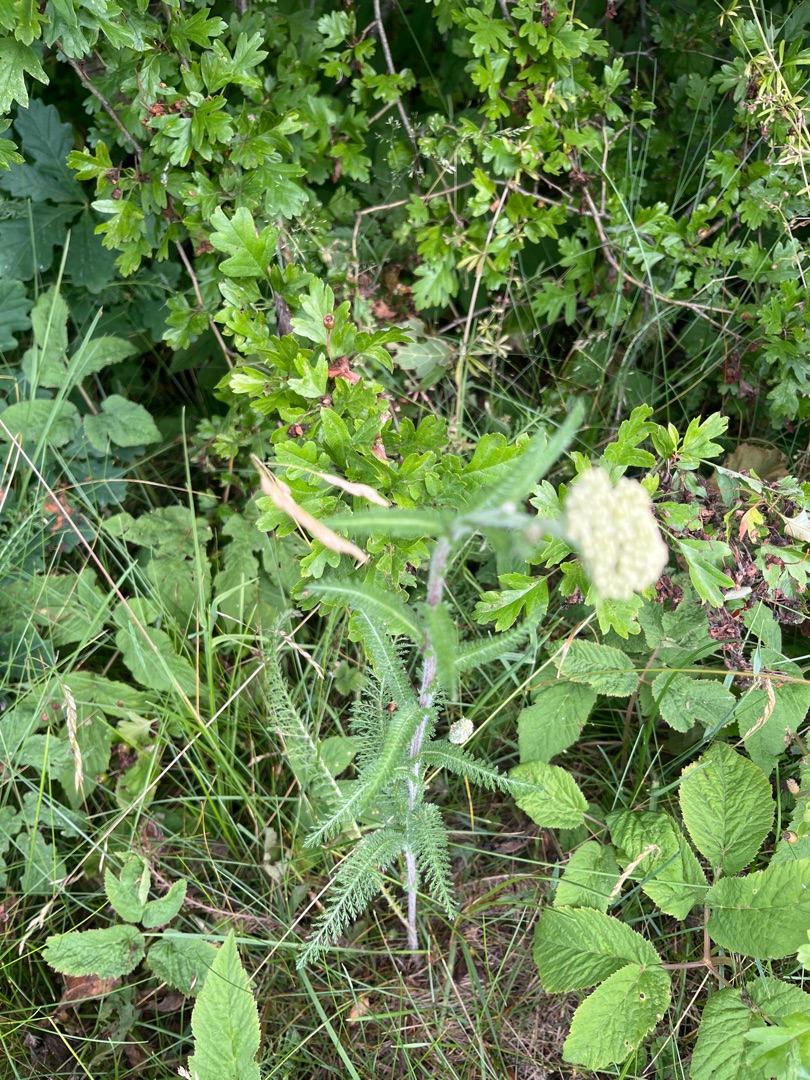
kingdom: Plantae
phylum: Tracheophyta
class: Magnoliopsida
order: Asterales
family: Asteraceae
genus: Achillea
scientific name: Achillea millefolium
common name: Almindelig røllike
